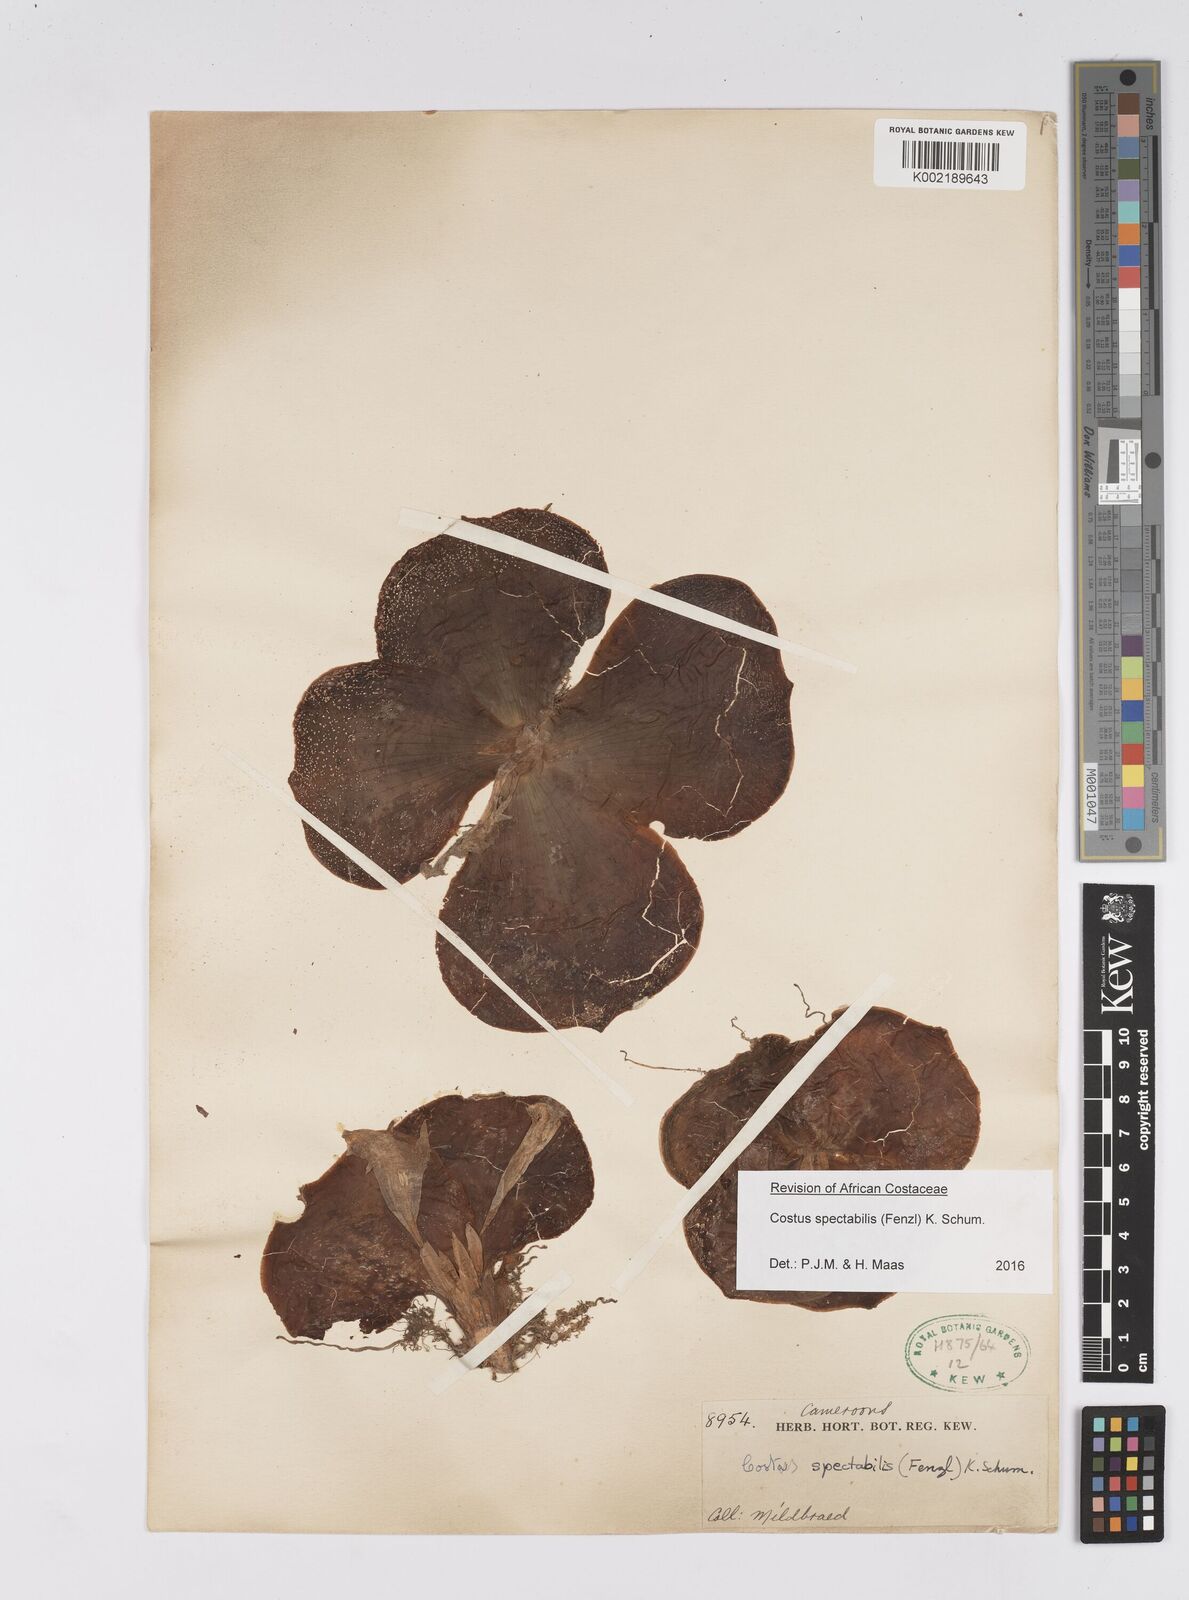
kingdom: Plantae
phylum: Tracheophyta
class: Liliopsida
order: Zingiberales
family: Costaceae
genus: Costus
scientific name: Costus spectabilis
